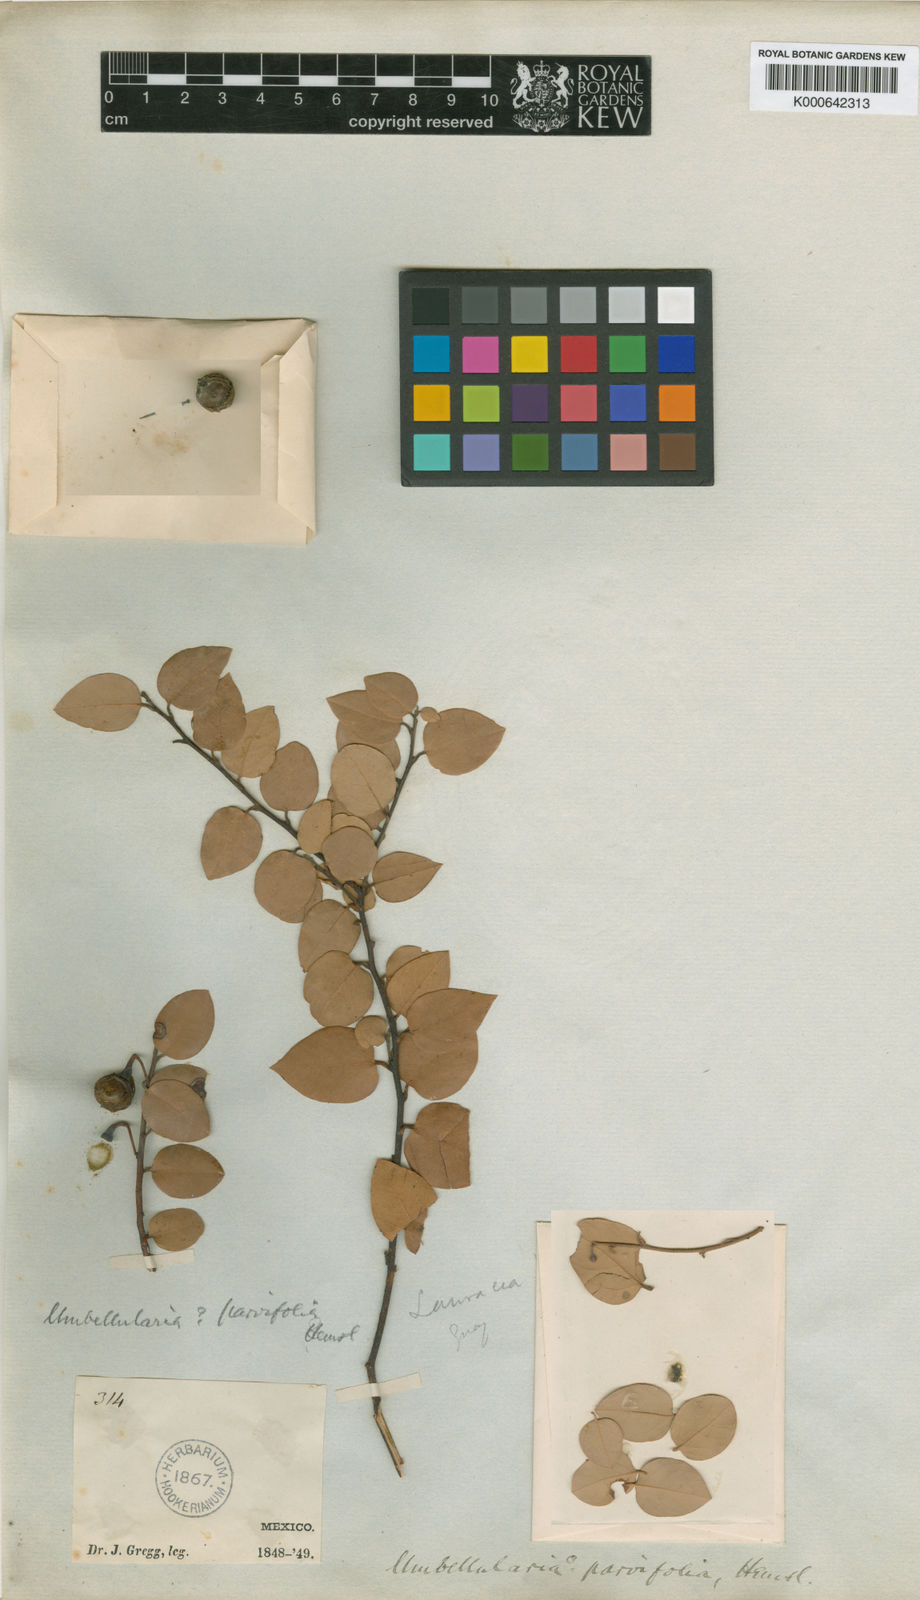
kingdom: Plantae
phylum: Tracheophyta
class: Magnoliopsida
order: Laurales
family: Lauraceae
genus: Litsea
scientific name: Litsea parvifolia
